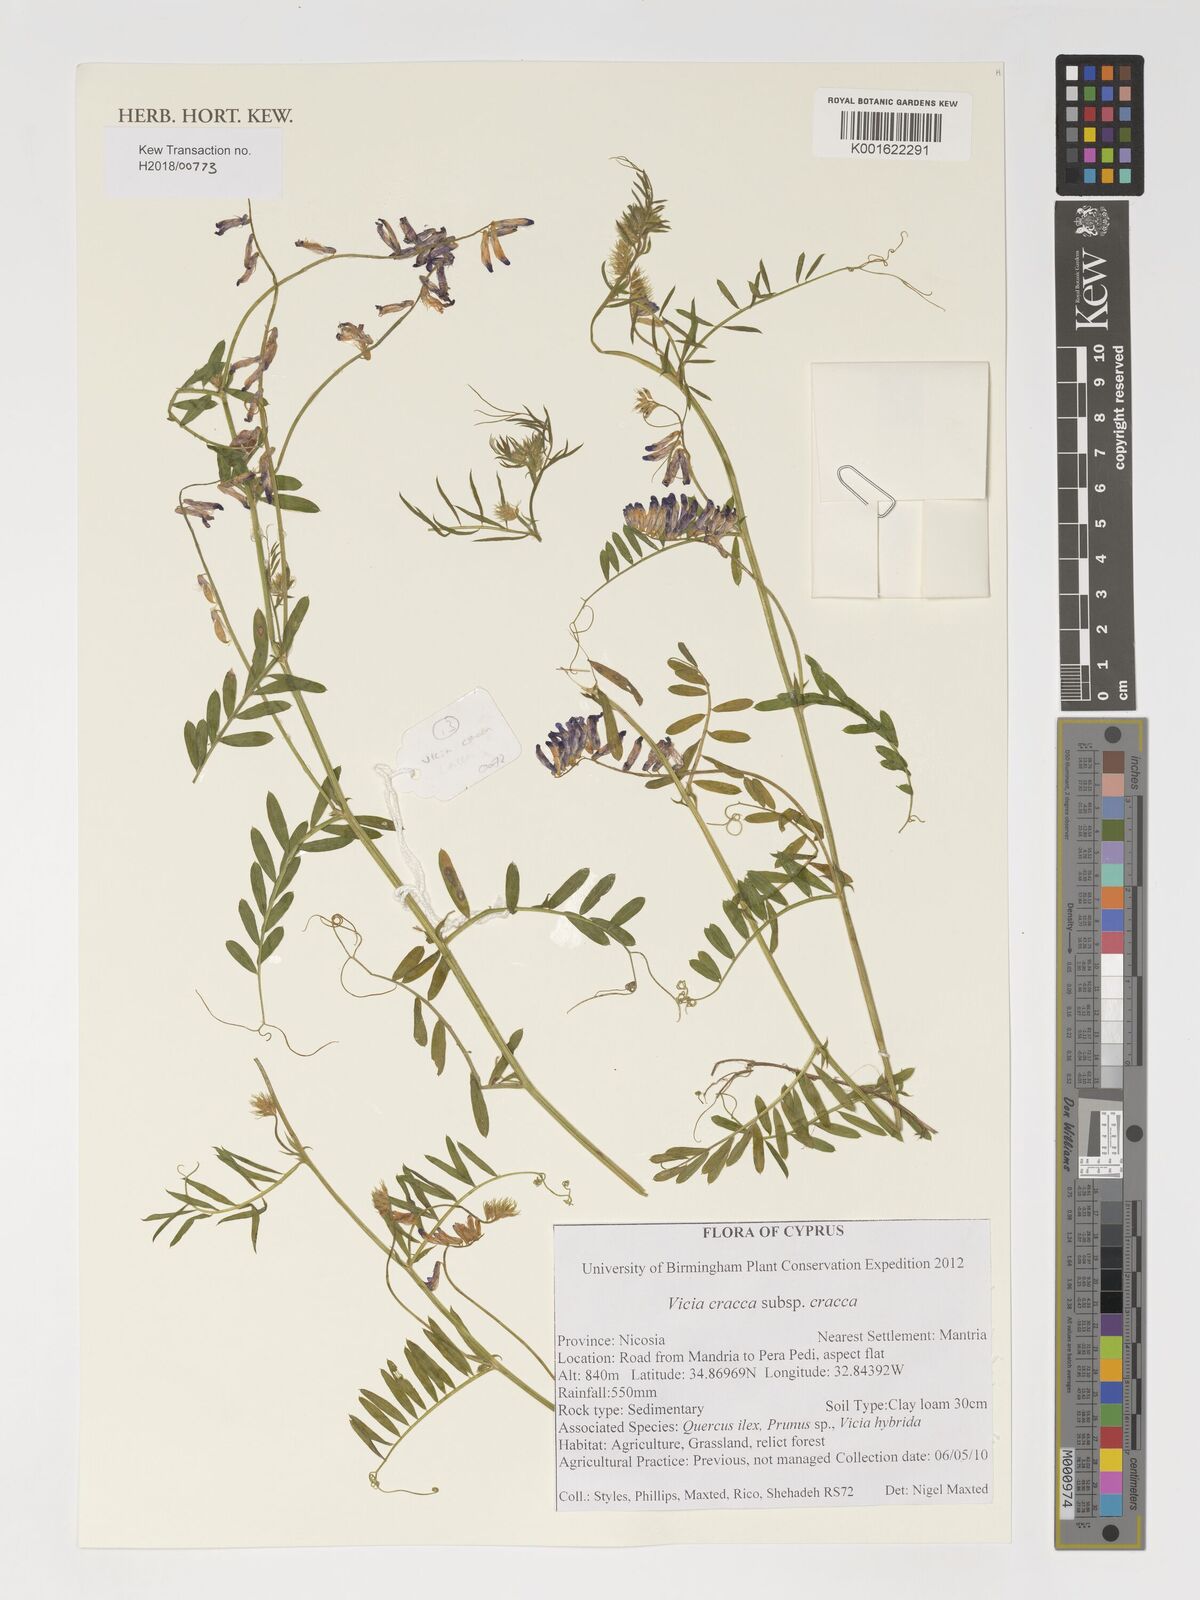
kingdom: Plantae
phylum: Tracheophyta
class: Magnoliopsida
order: Fabales
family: Fabaceae
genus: Vicia
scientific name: Vicia cracca
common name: Bird vetch
